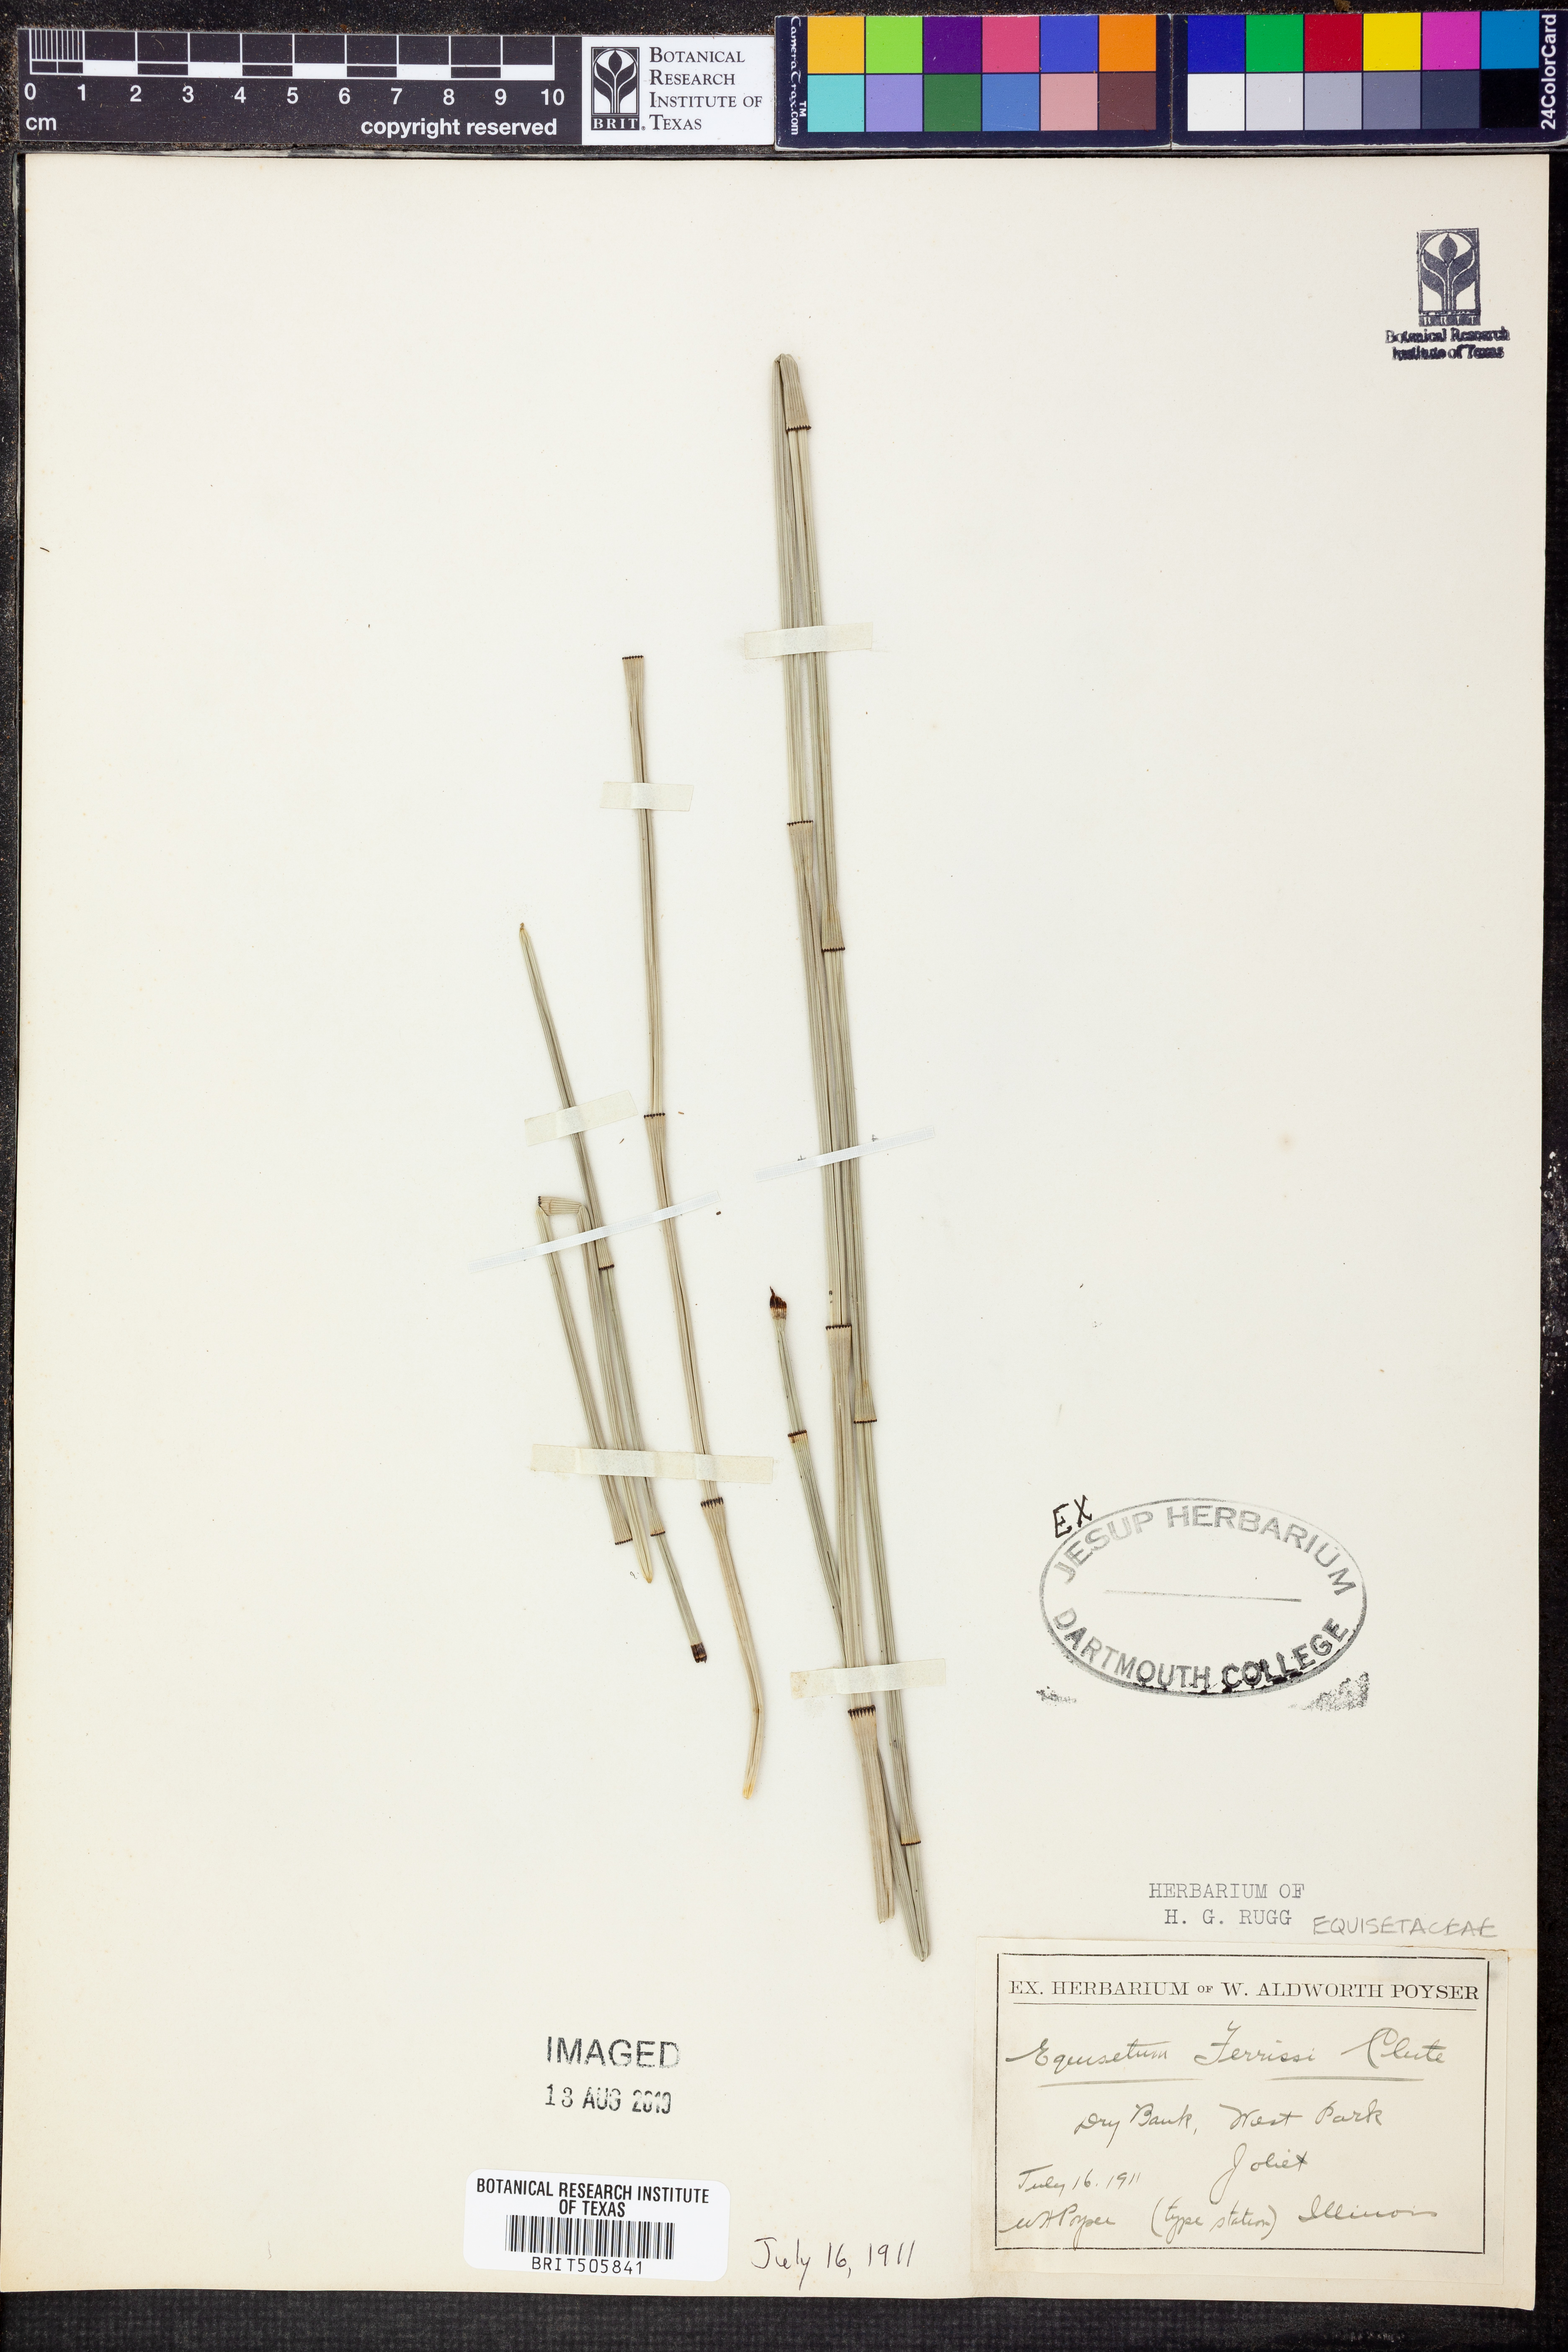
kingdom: Plantae
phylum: Tracheophyta
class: Polypodiopsida
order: Equisetales
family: Equisetaceae
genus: Equisetum
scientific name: Equisetum ferrissii
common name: Ferriss' horsetail
